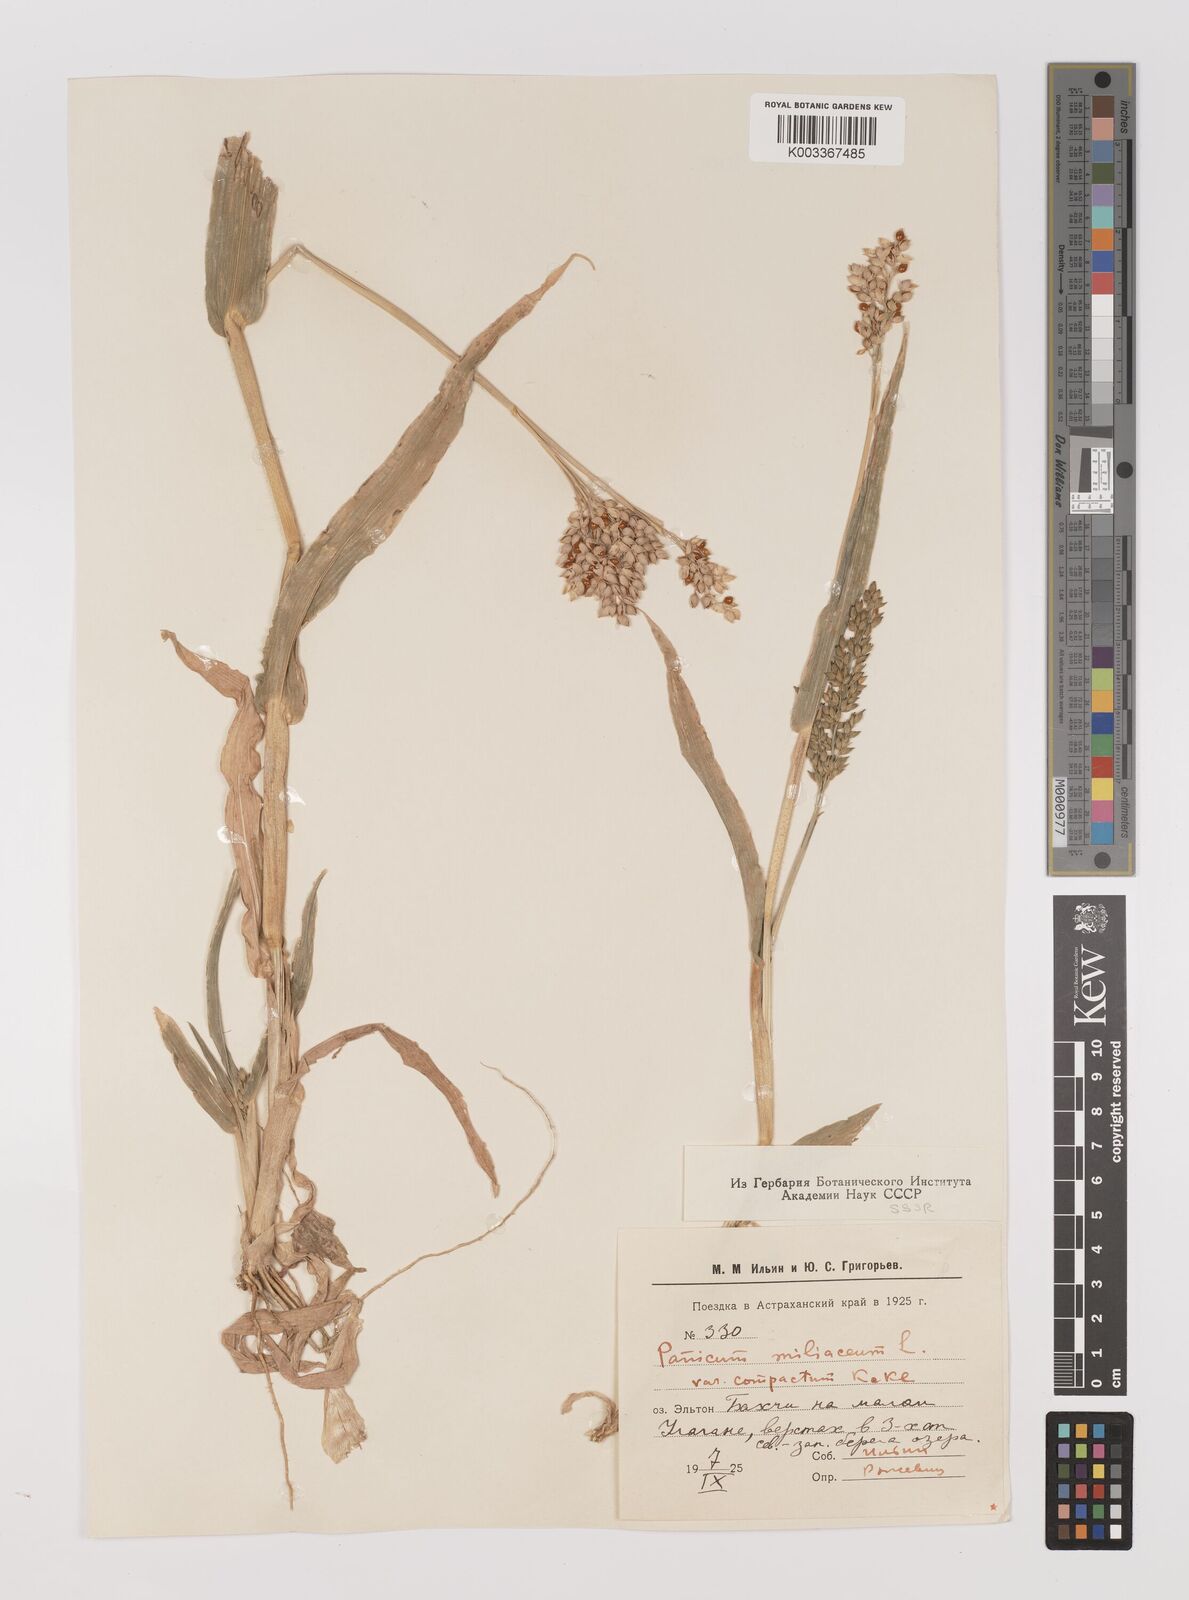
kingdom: Plantae
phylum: Tracheophyta
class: Liliopsida
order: Poales
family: Poaceae
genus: Panicum
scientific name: Panicum miliaceum
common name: Common millet
